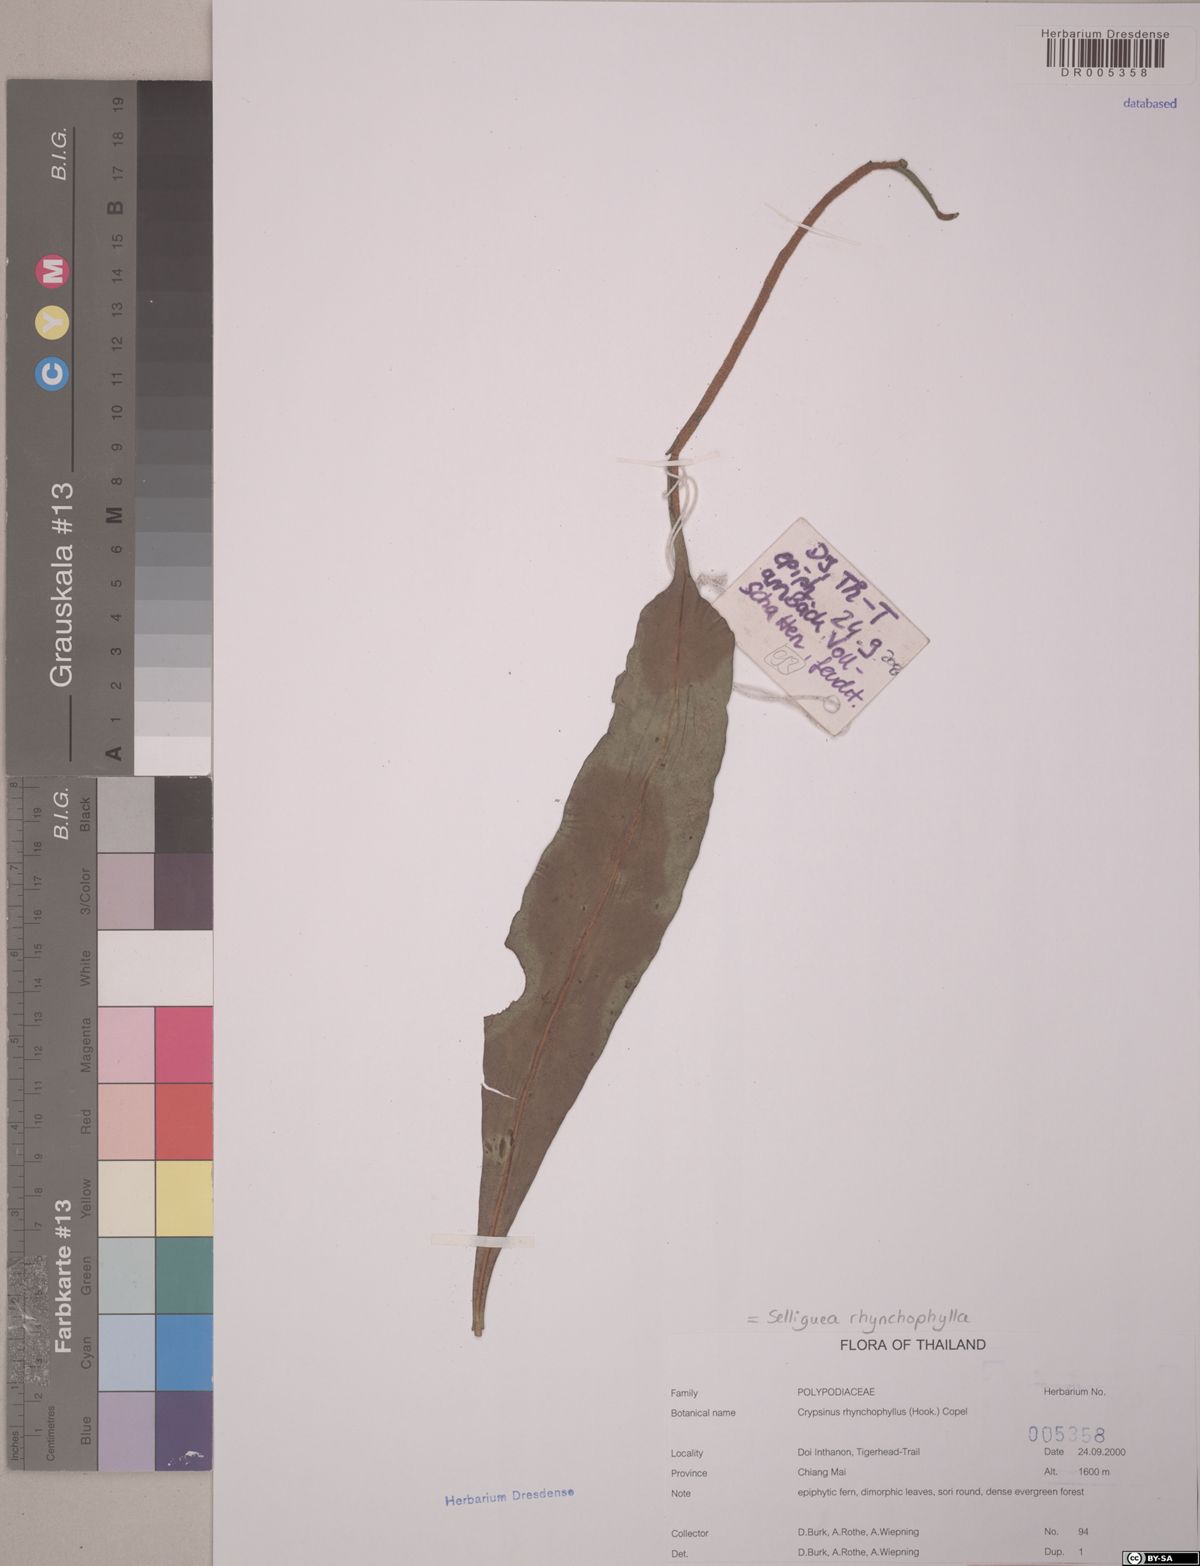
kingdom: Plantae
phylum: Tracheophyta
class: Polypodiopsida
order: Polypodiales
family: Polypodiaceae
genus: Selliguea
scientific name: Selliguea rhynchophylla
